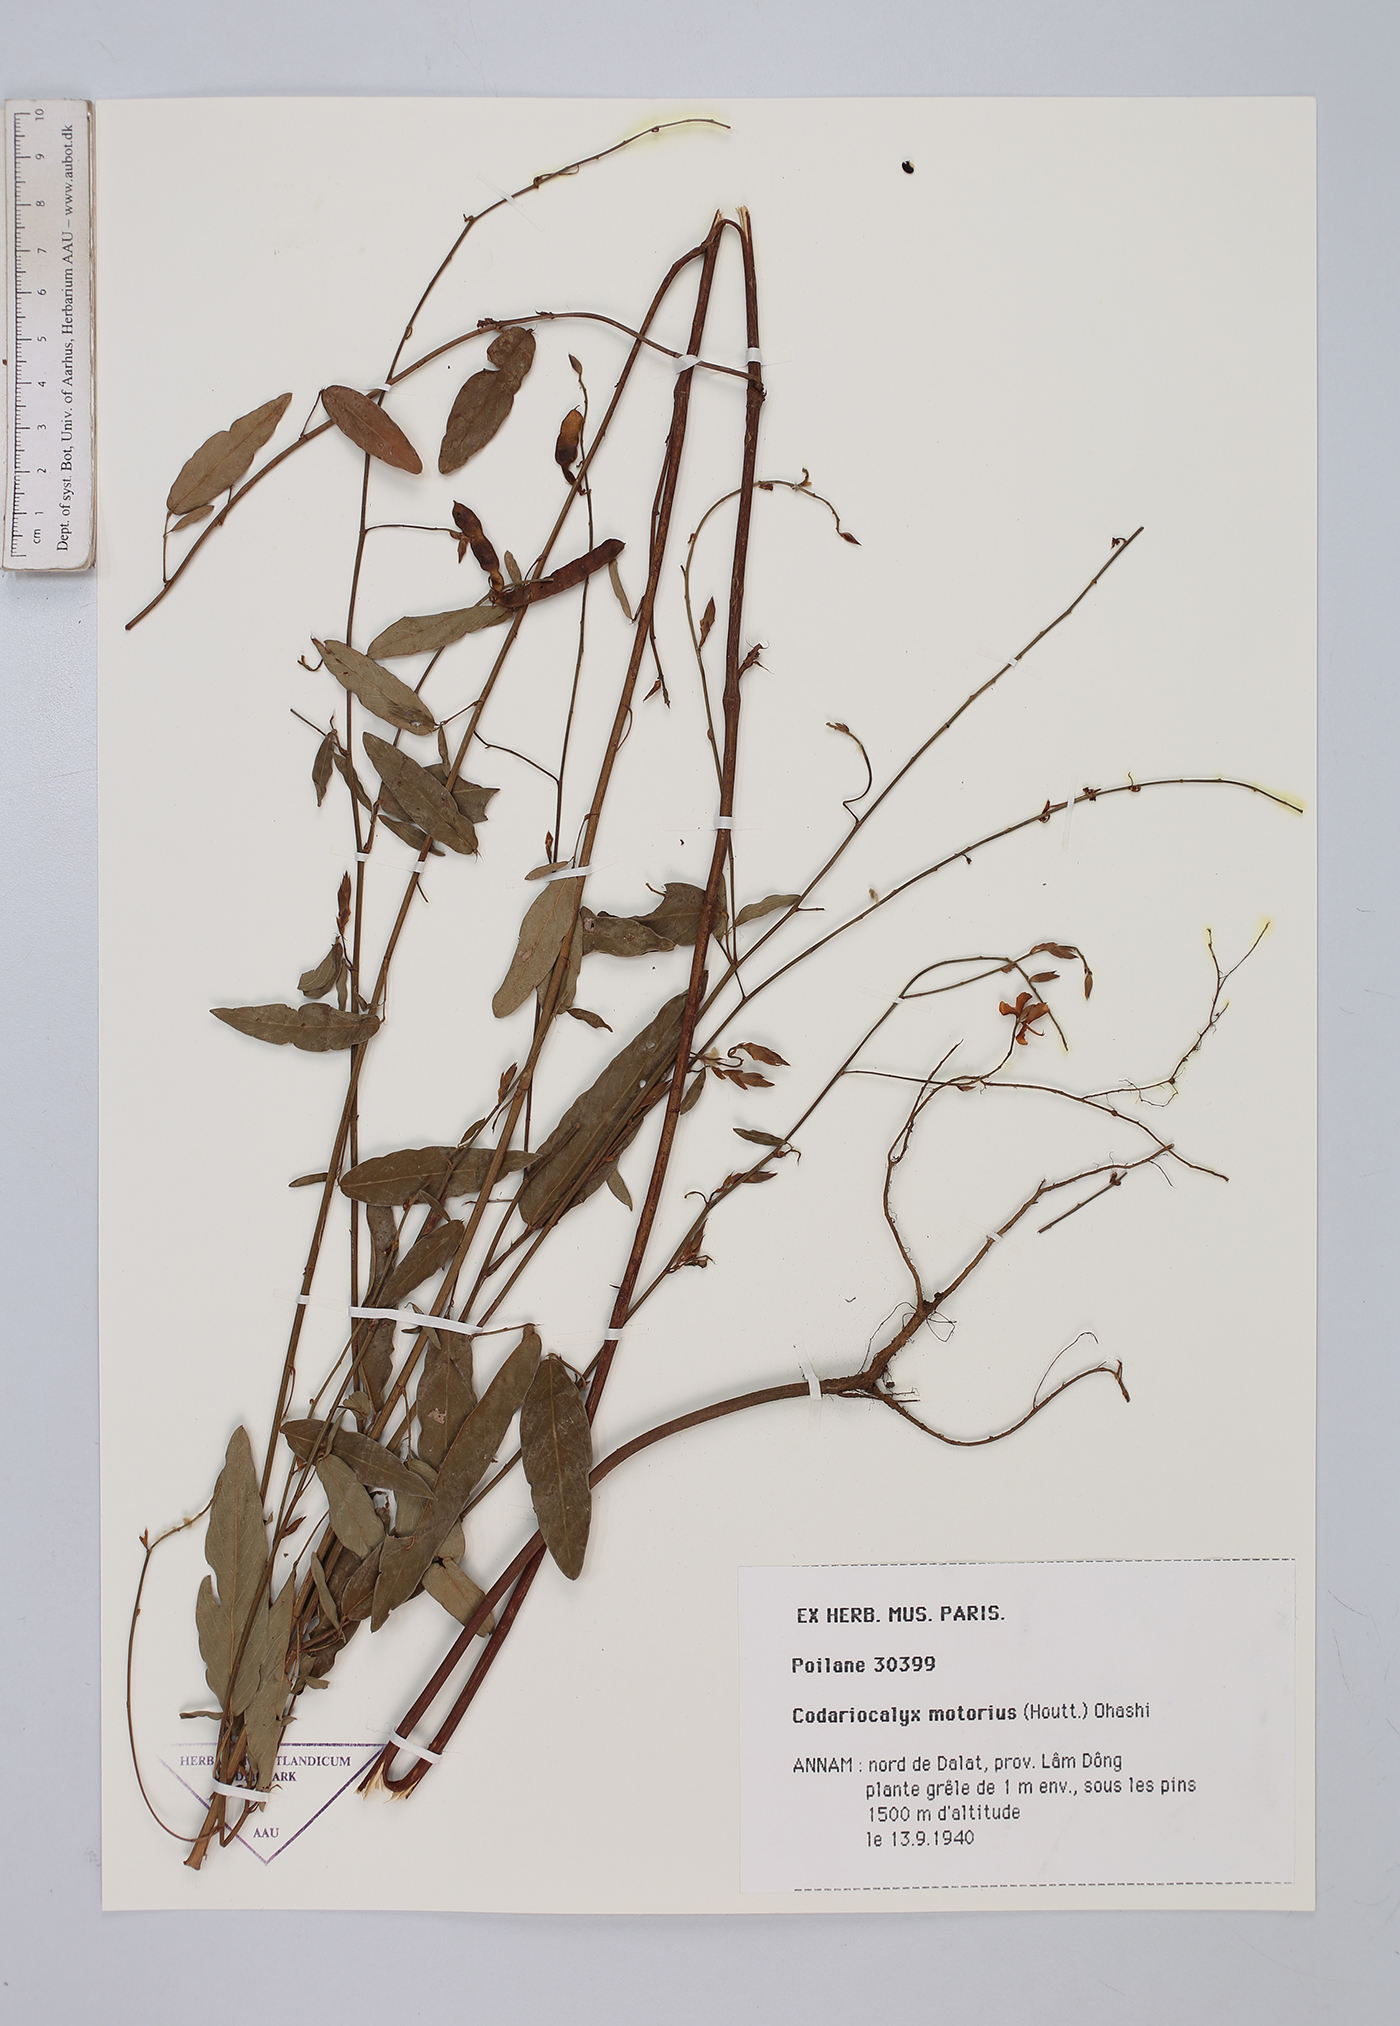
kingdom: Plantae
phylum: Tracheophyta
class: Magnoliopsida
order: Fabales
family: Fabaceae
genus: Codariocalyx
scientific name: Codariocalyx motorius
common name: Telegraph-plant
